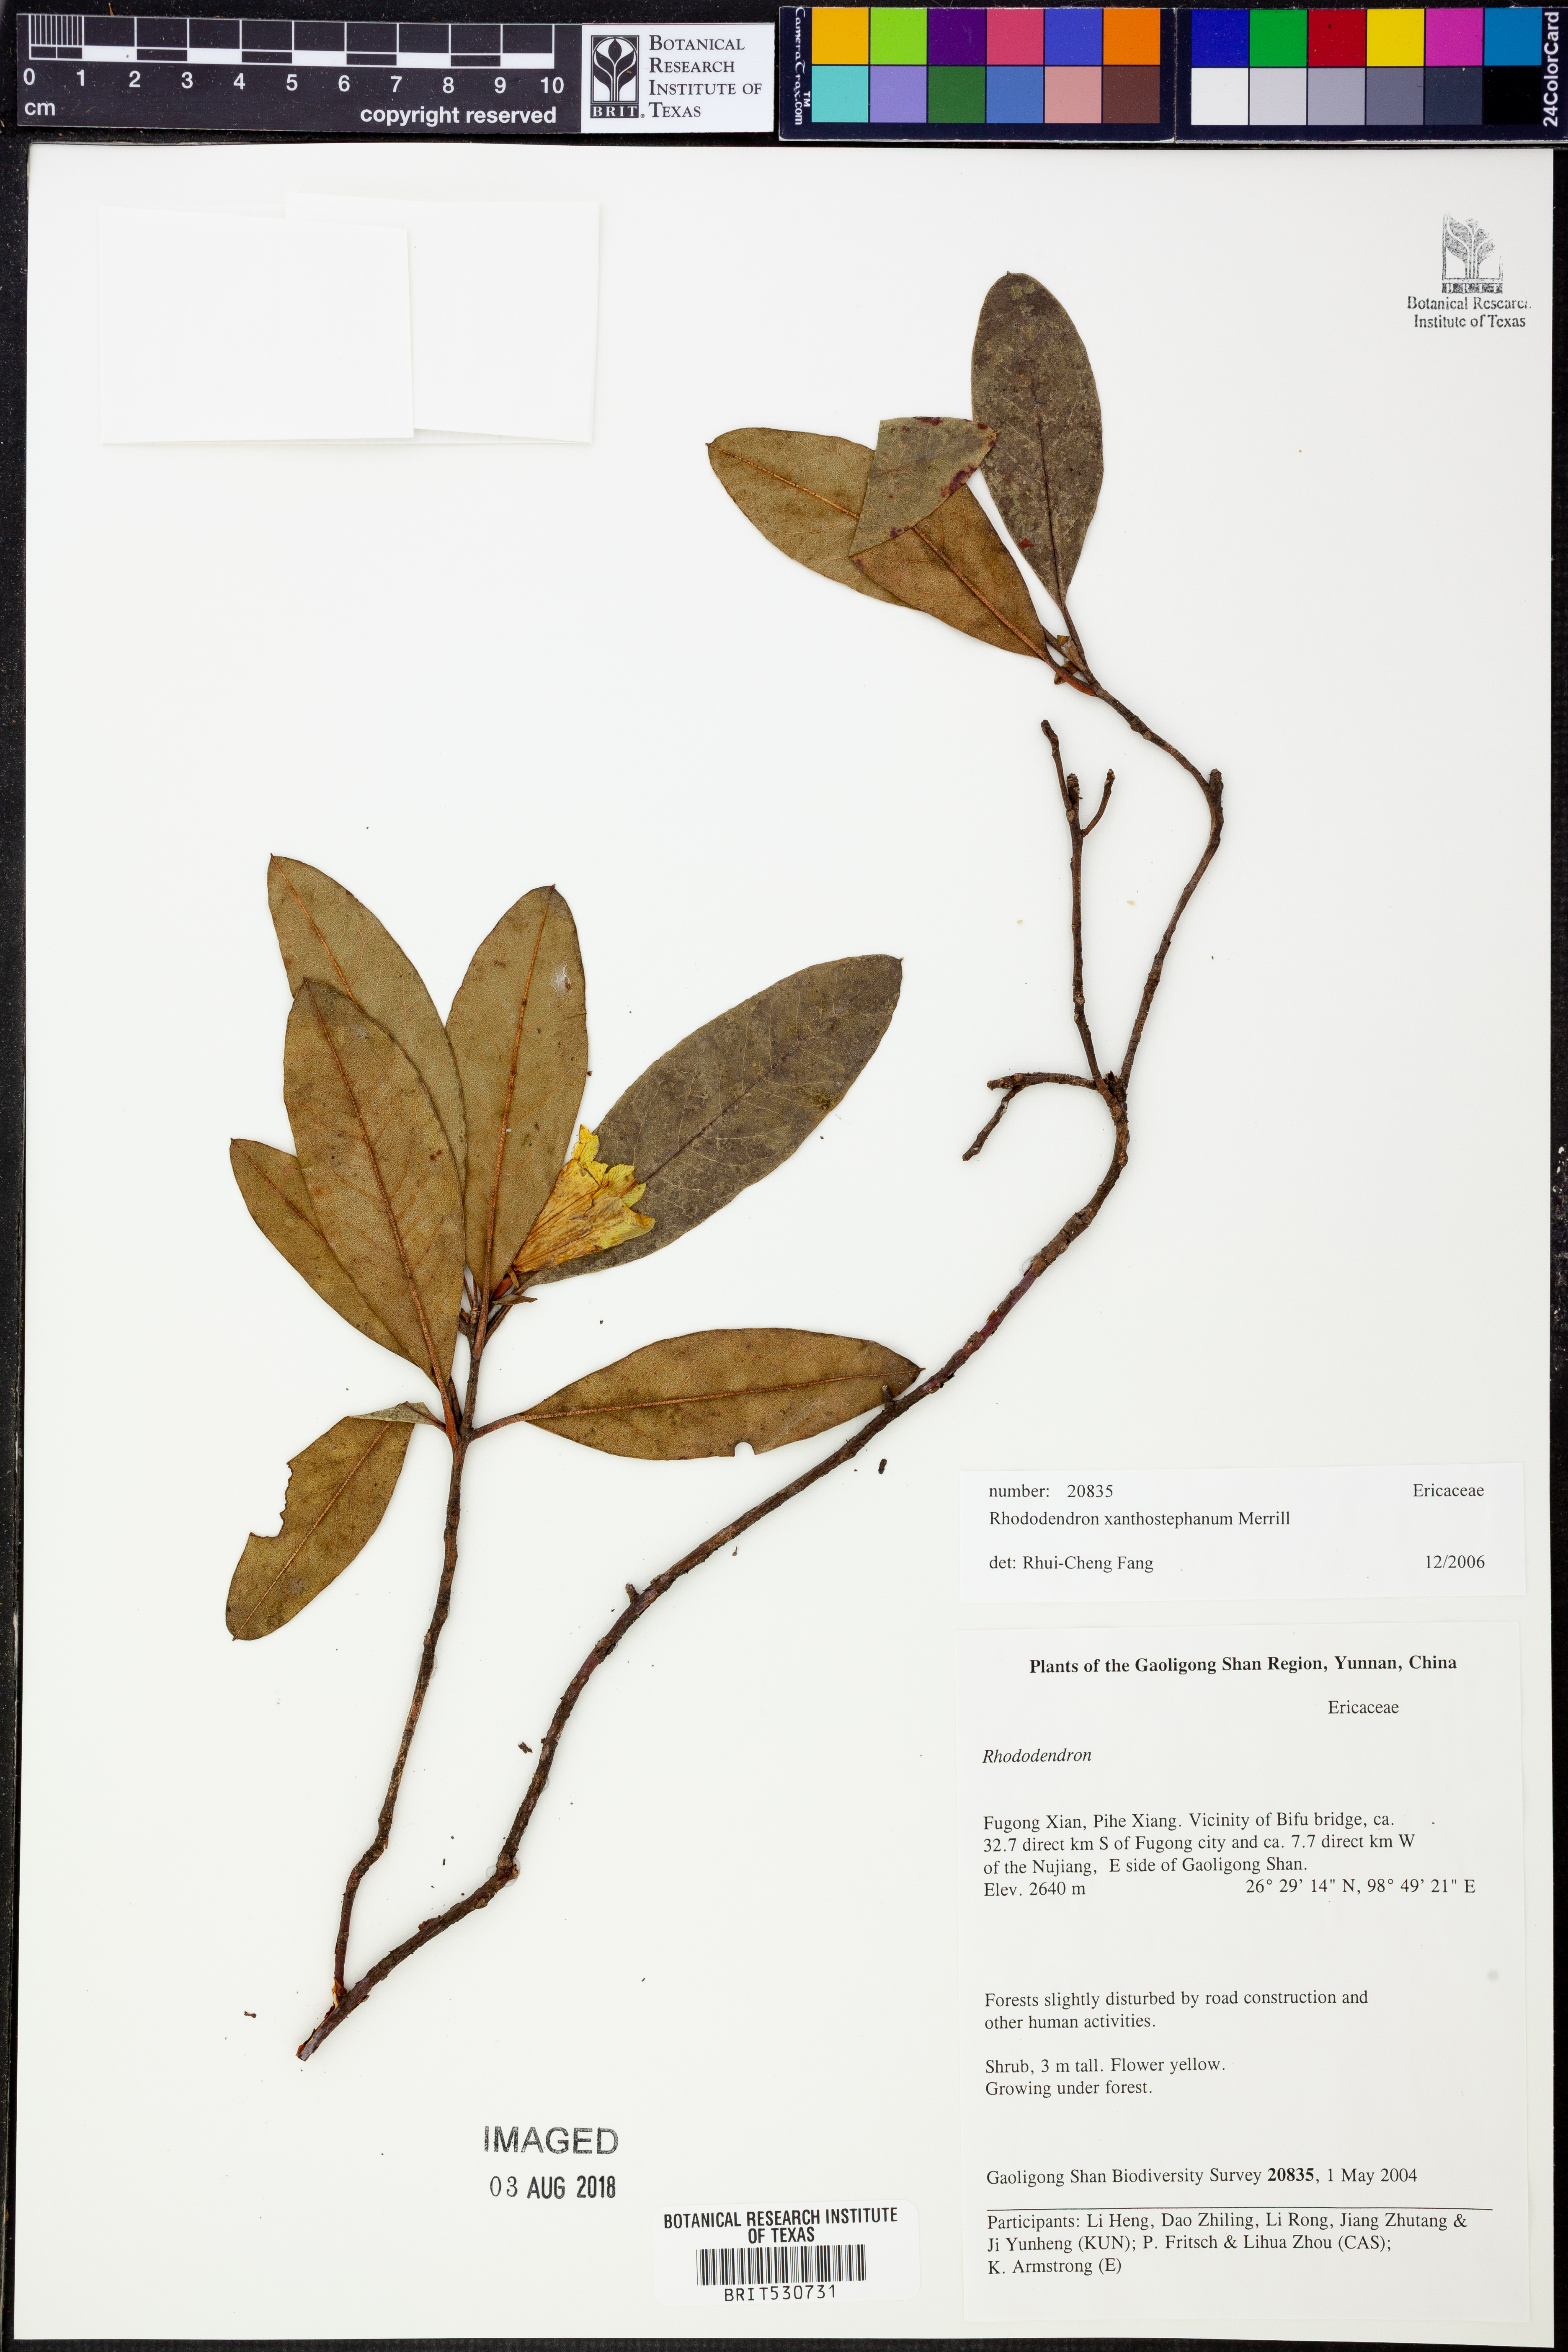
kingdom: Plantae
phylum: Tracheophyta
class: Magnoliopsida
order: Ericales
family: Ericaceae
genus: Rhododendron
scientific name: Rhododendron xanthostephanum
